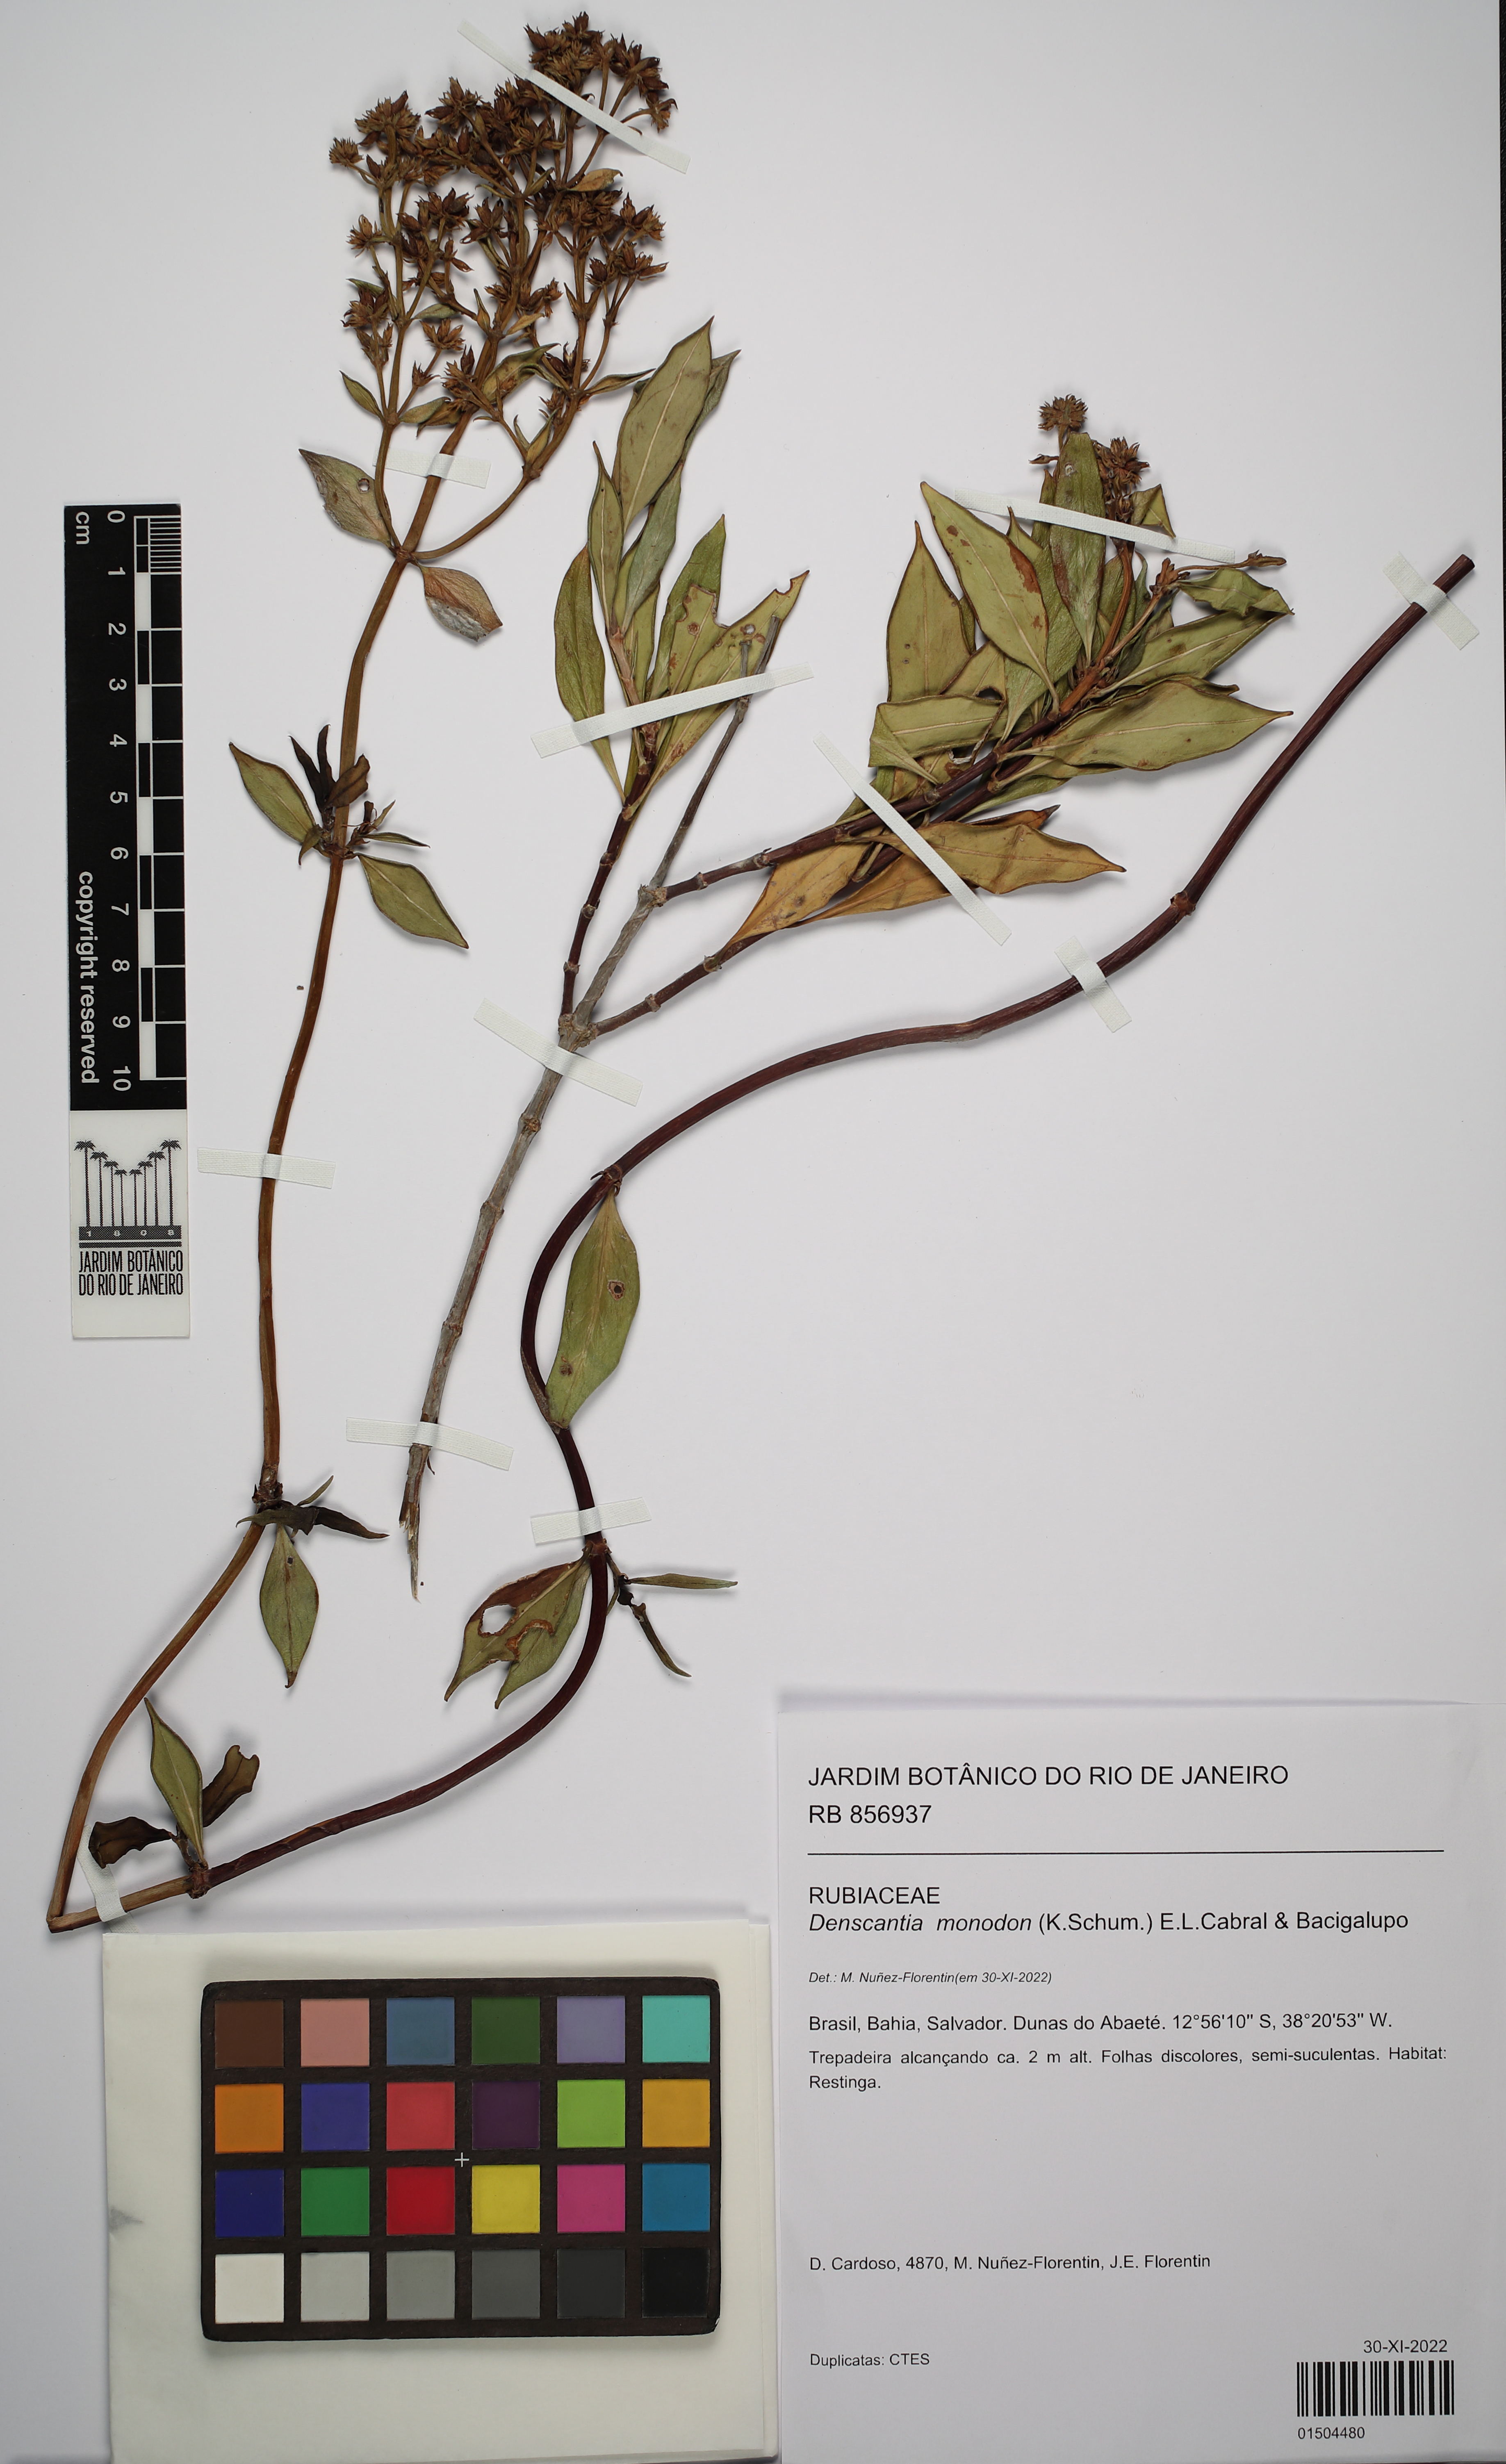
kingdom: Plantae
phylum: Tracheophyta
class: Magnoliopsida
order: Gentianales
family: Rubiaceae
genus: Denscantia
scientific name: Denscantia monodon
